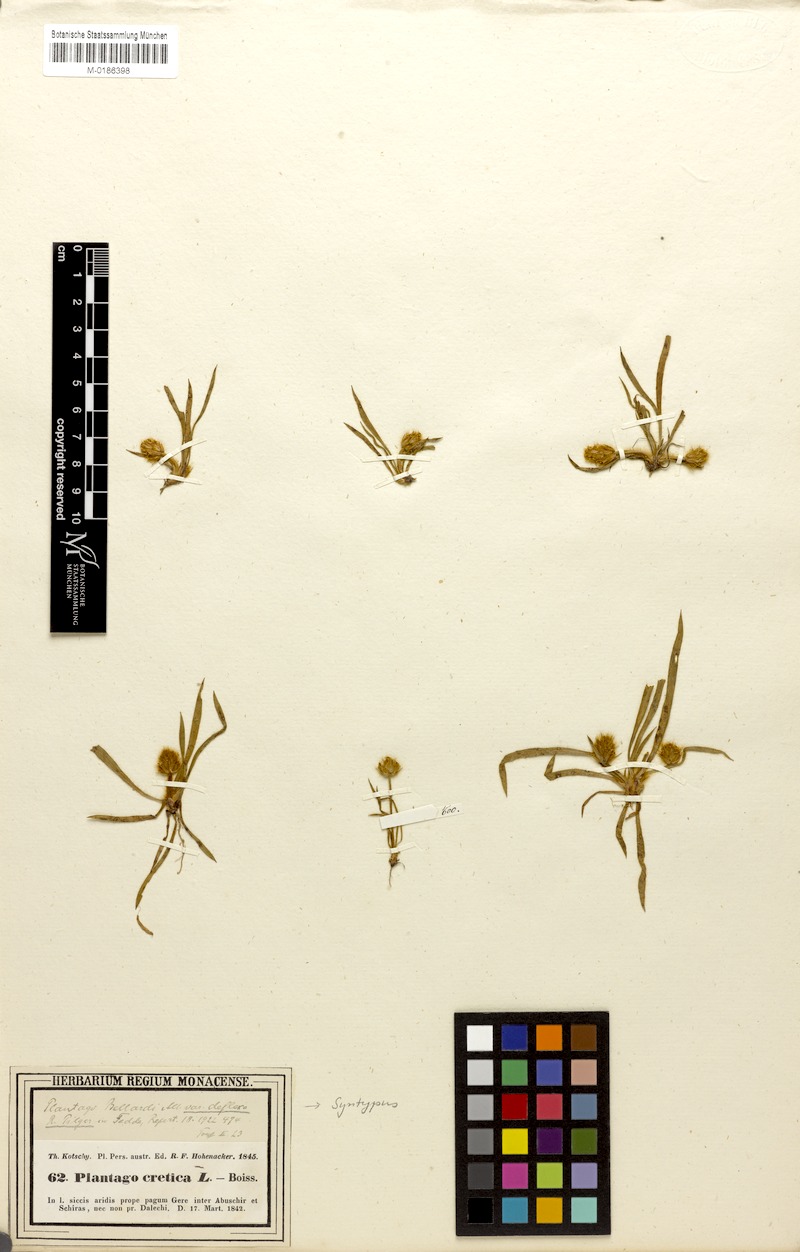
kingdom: Plantae
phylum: Tracheophyta
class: Magnoliopsida
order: Lamiales
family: Plantaginaceae
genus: Plantago
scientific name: Plantago bellardii
